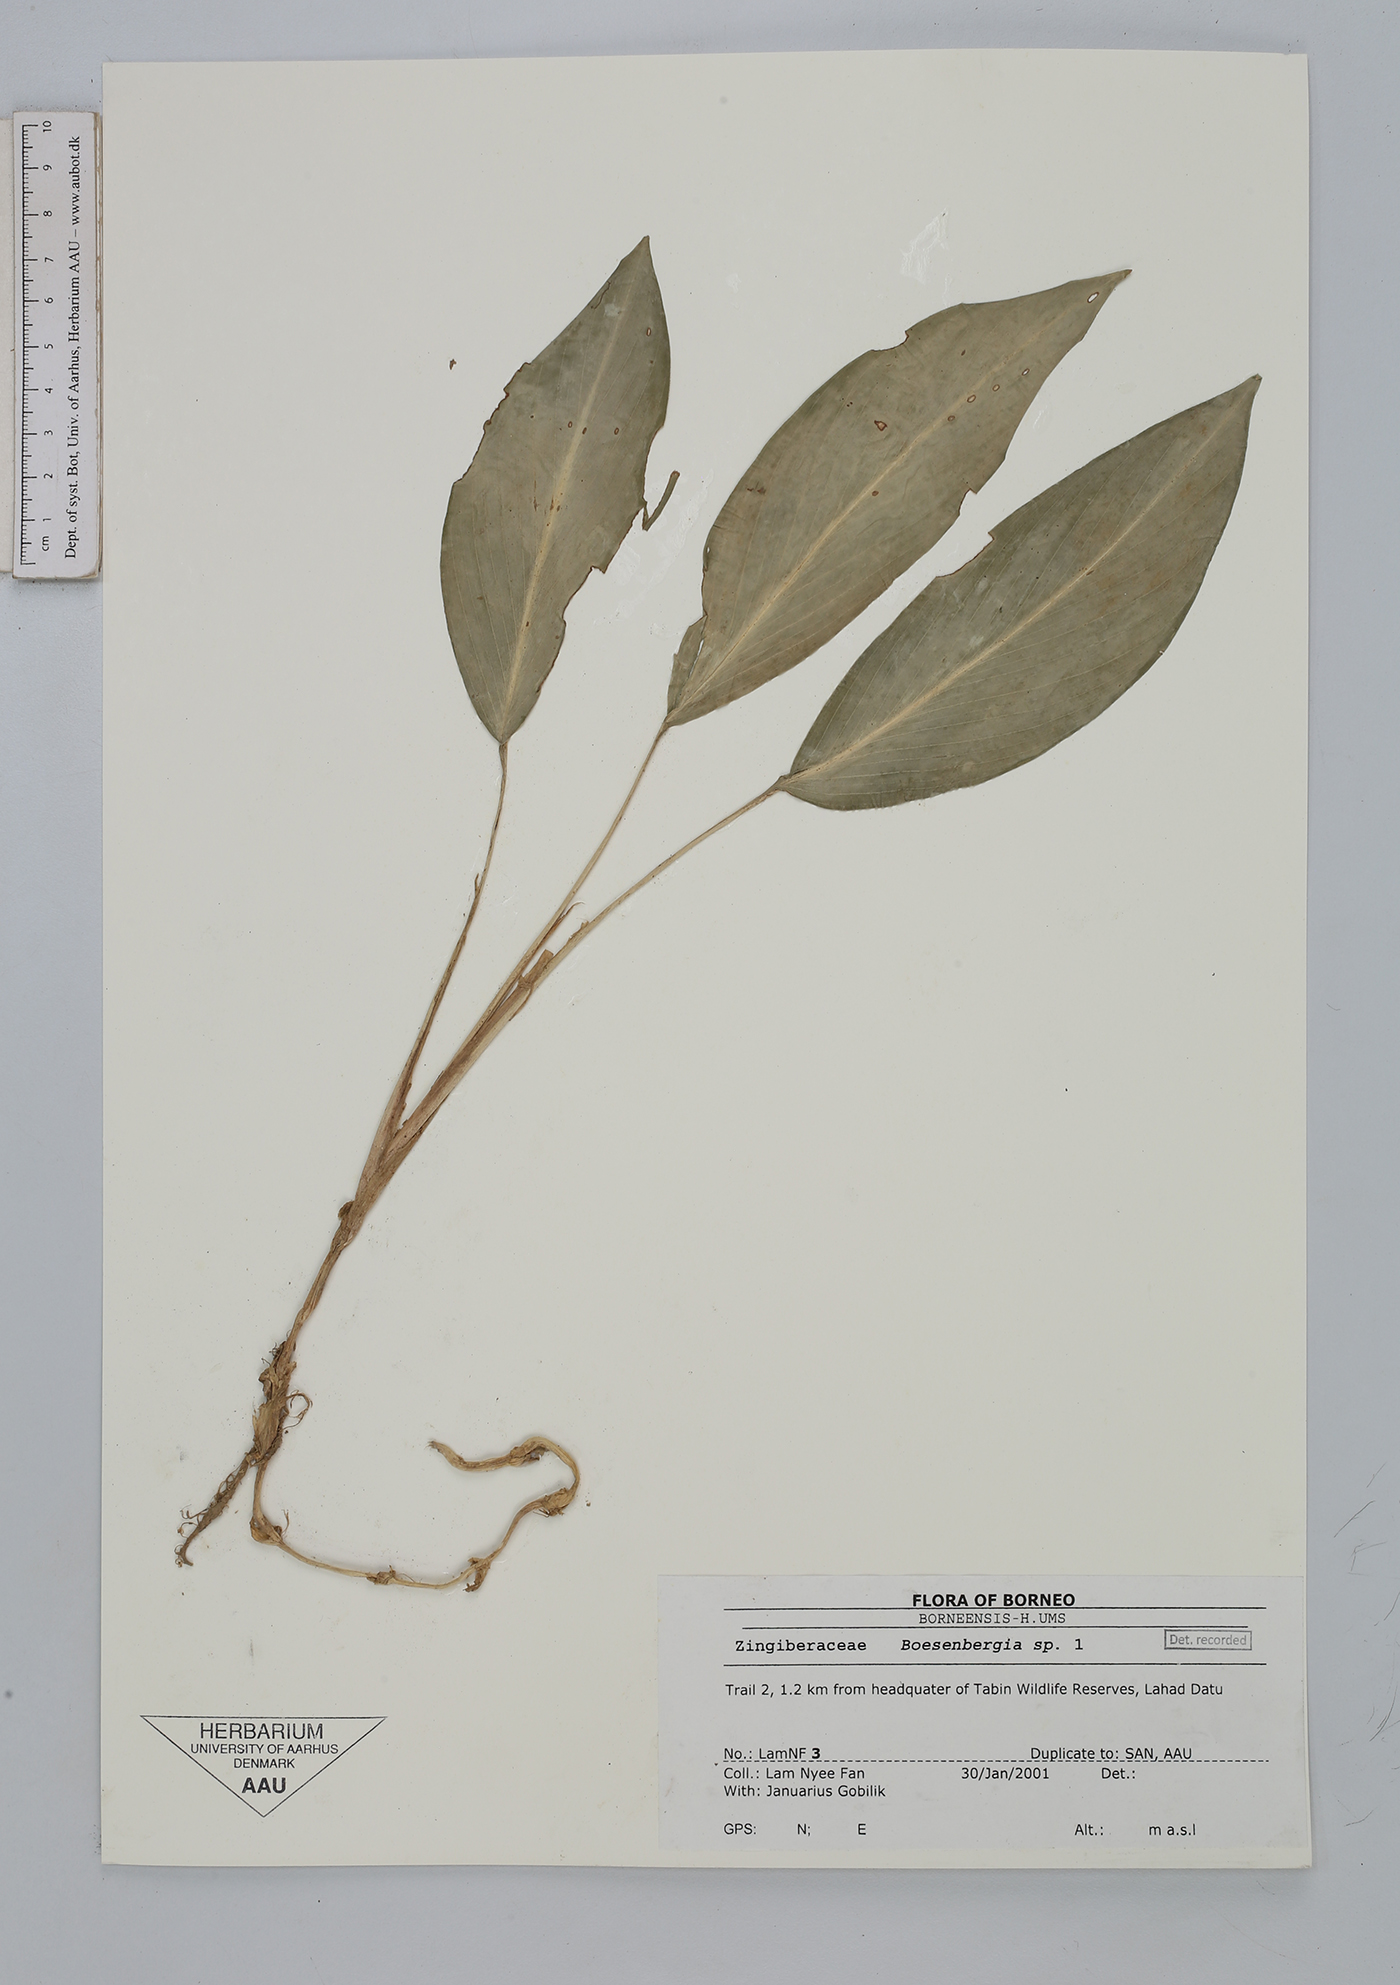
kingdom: Plantae
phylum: Tracheophyta
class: Liliopsida
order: Zingiberales
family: Zingiberaceae
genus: Boesenbergia
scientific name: Boesenbergia
